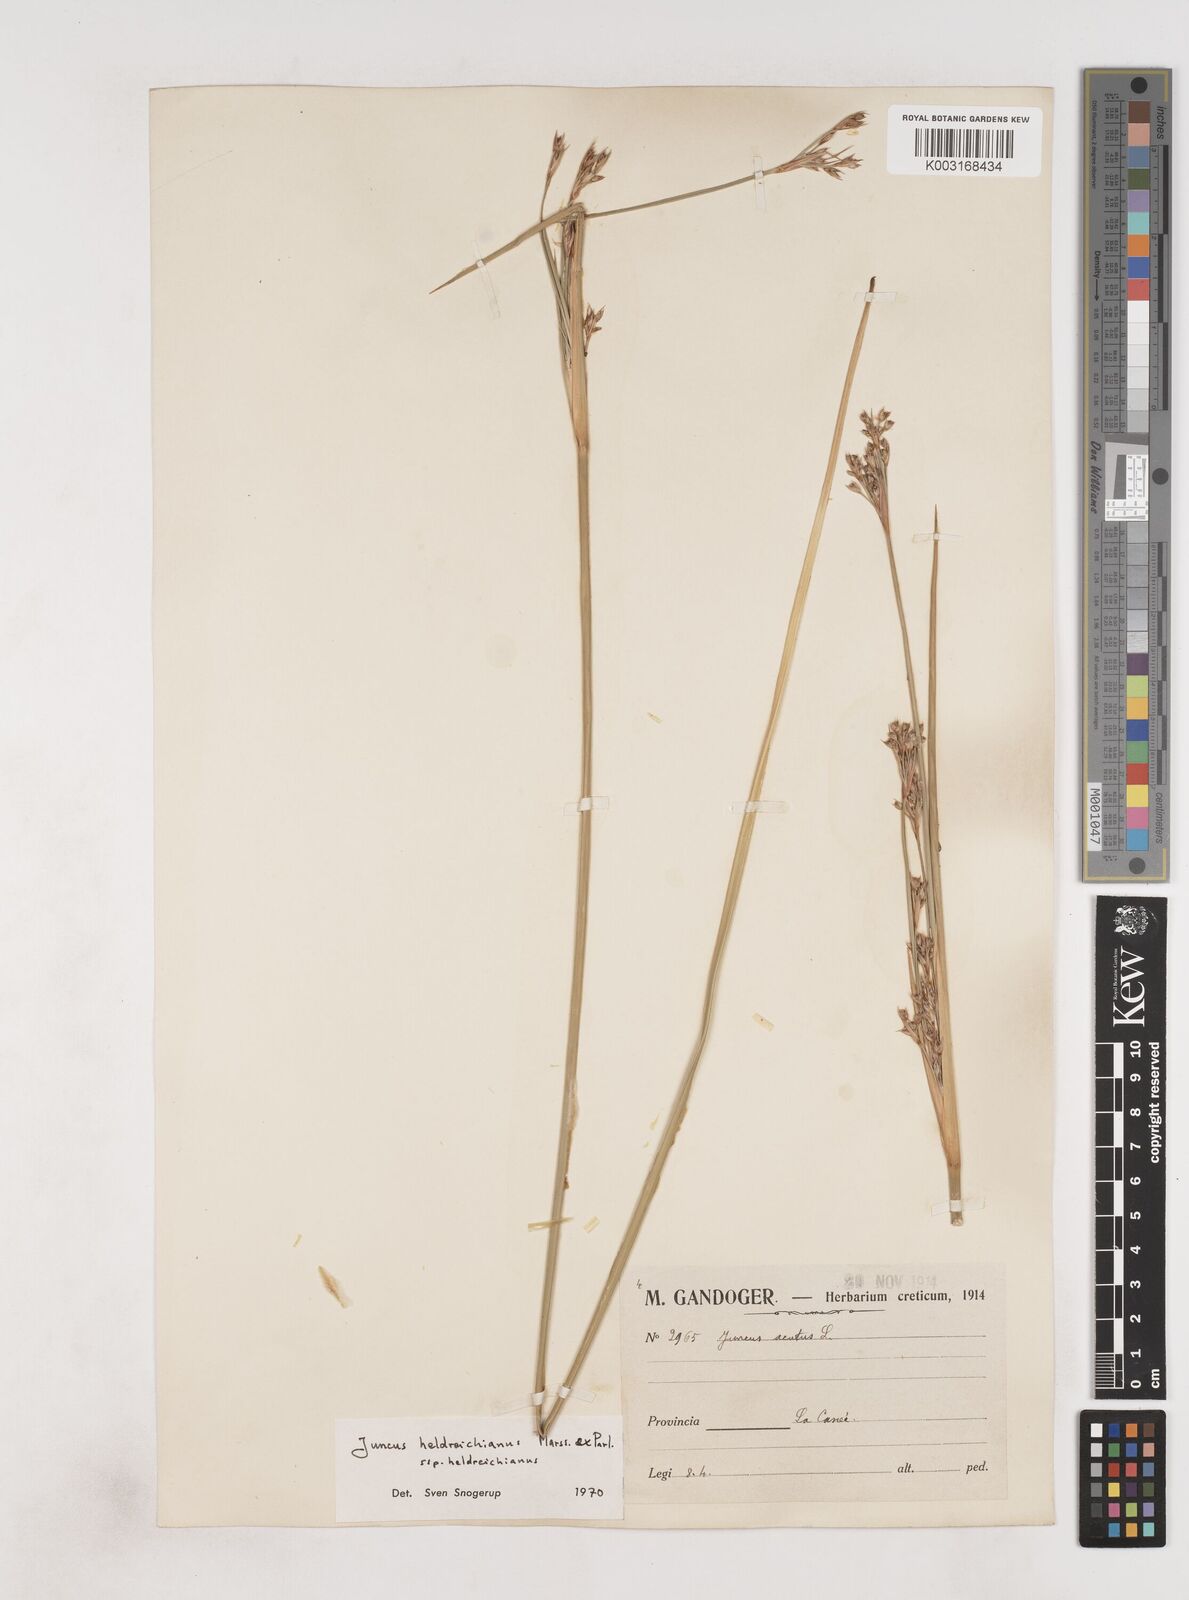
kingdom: Plantae
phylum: Tracheophyta
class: Liliopsida
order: Poales
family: Juncaceae
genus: Juncus
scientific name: Juncus heldreichianus
